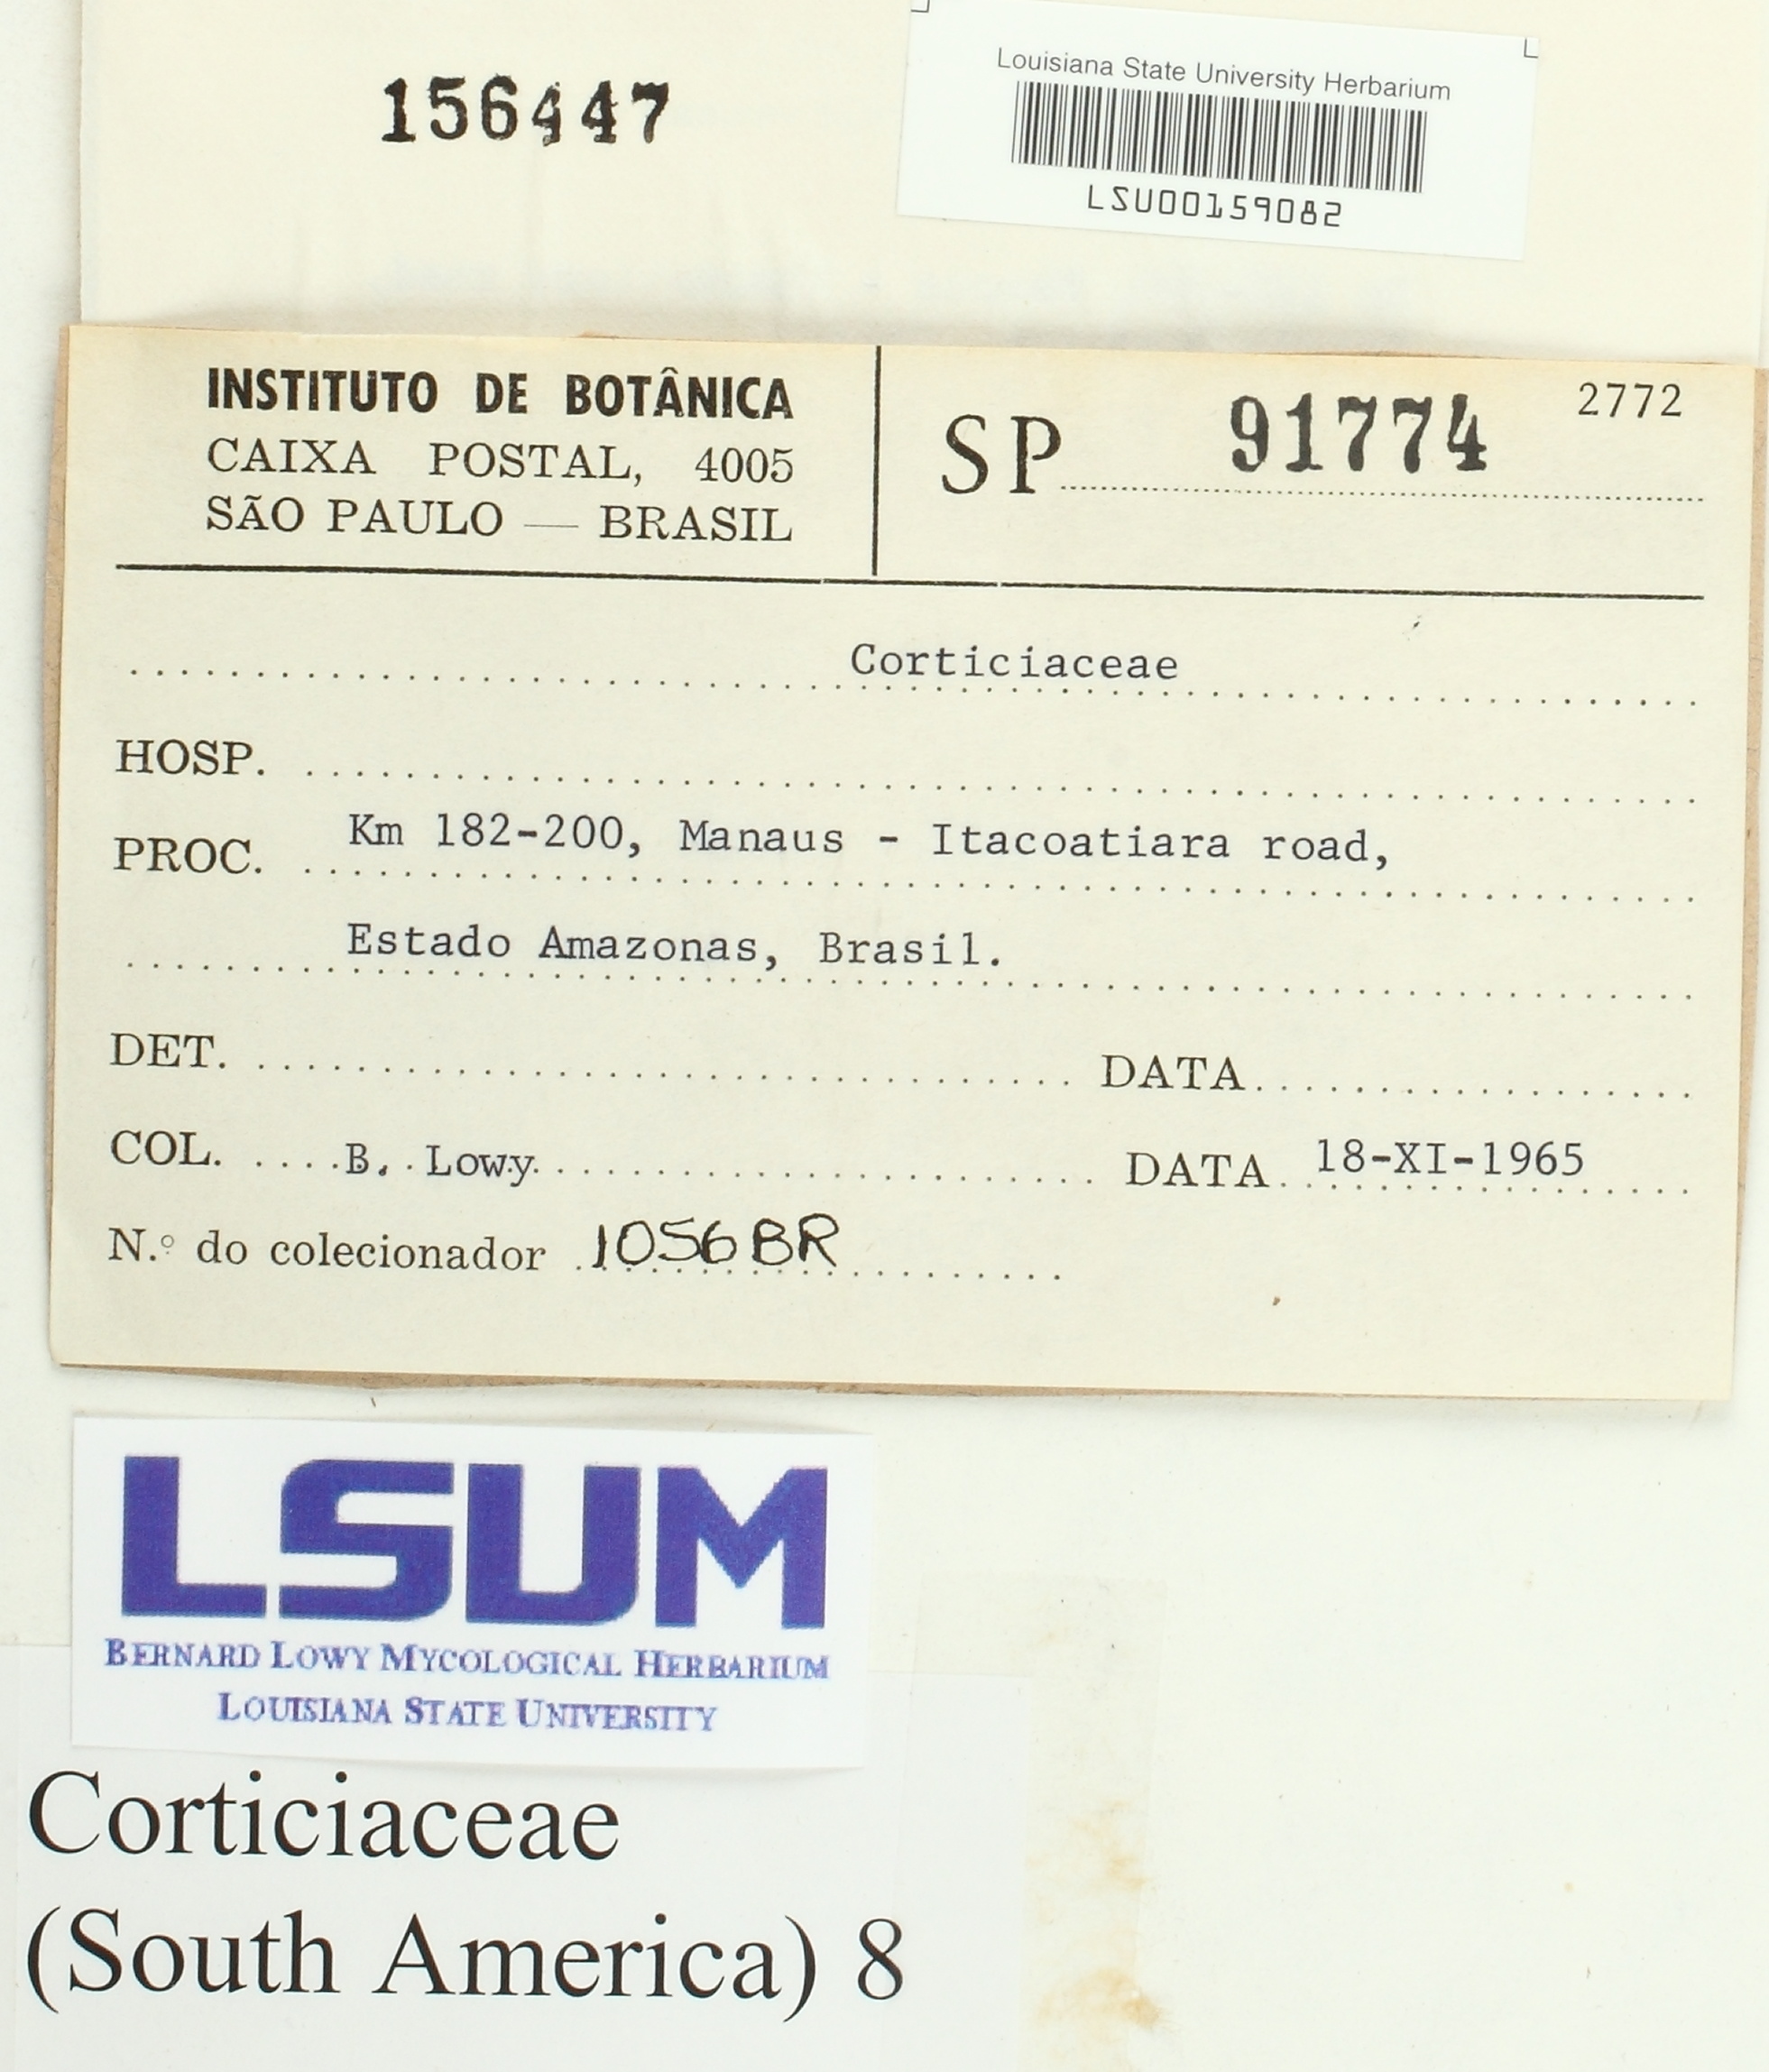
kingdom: Fungi
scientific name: Fungi
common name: Fungi
